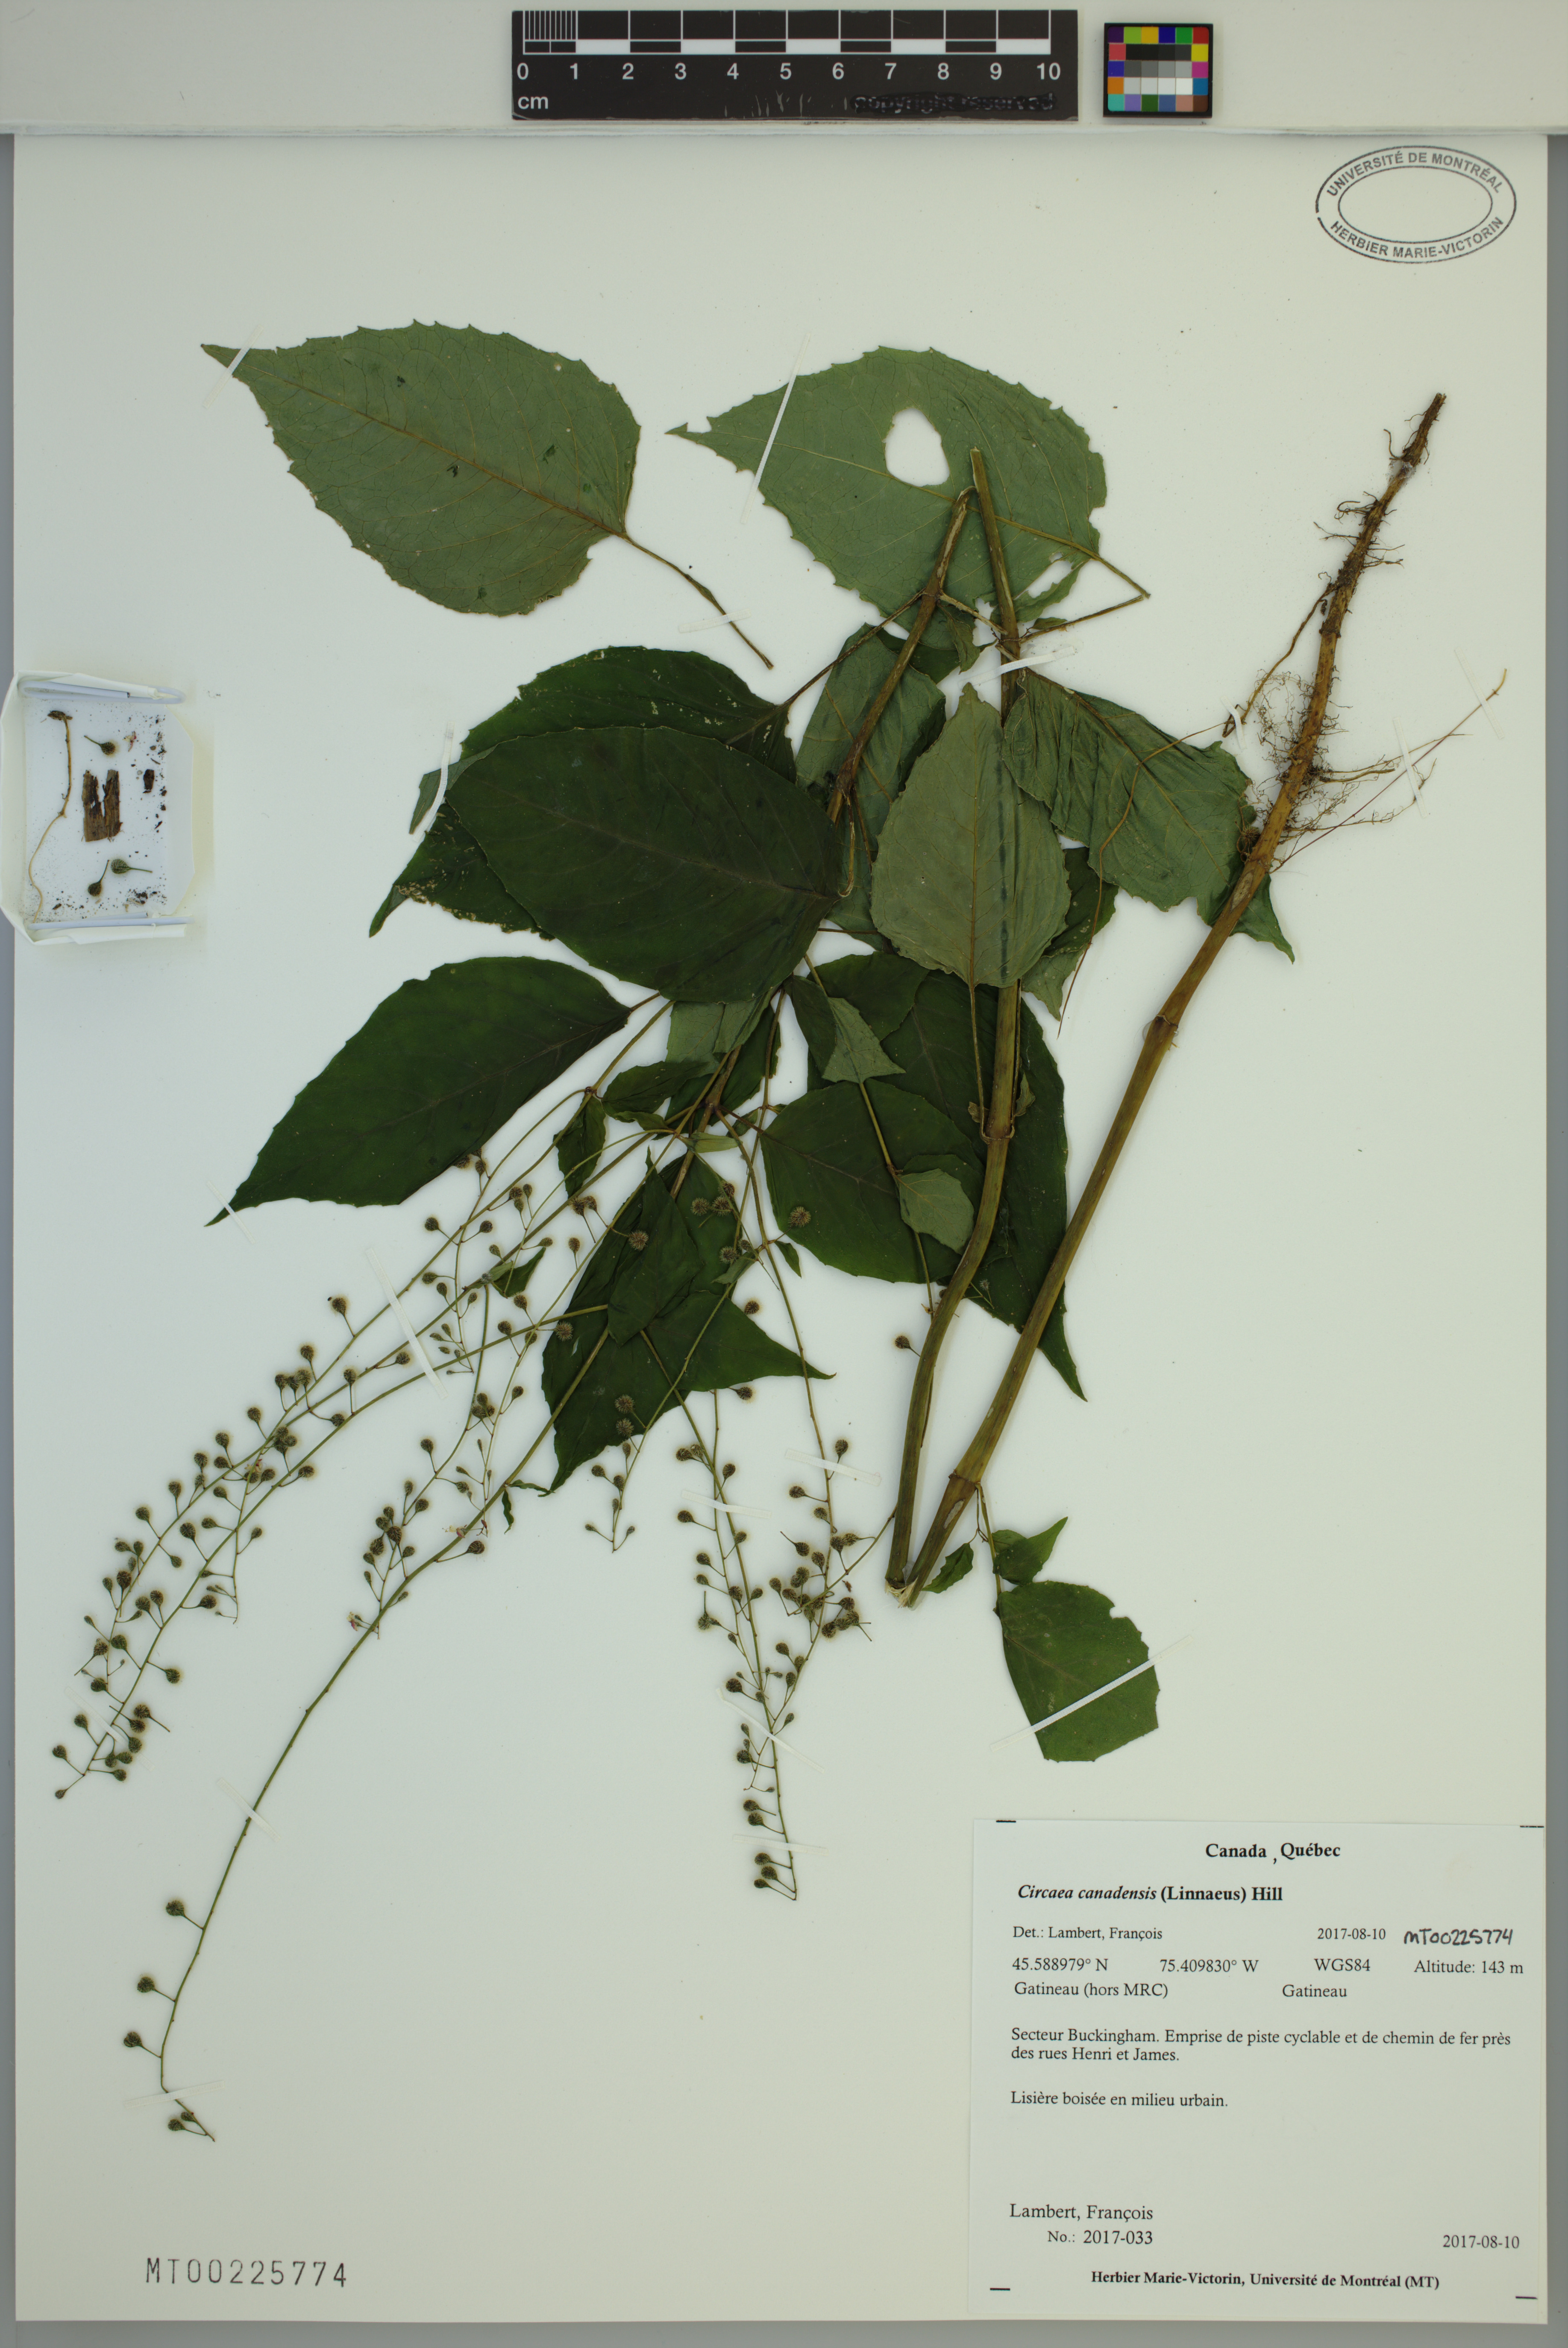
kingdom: Plantae
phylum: Tracheophyta
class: Magnoliopsida
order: Myrtales
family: Onagraceae
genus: Circaea
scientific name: Circaea canadensis
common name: Broad-leaved enchanter's nightshade
